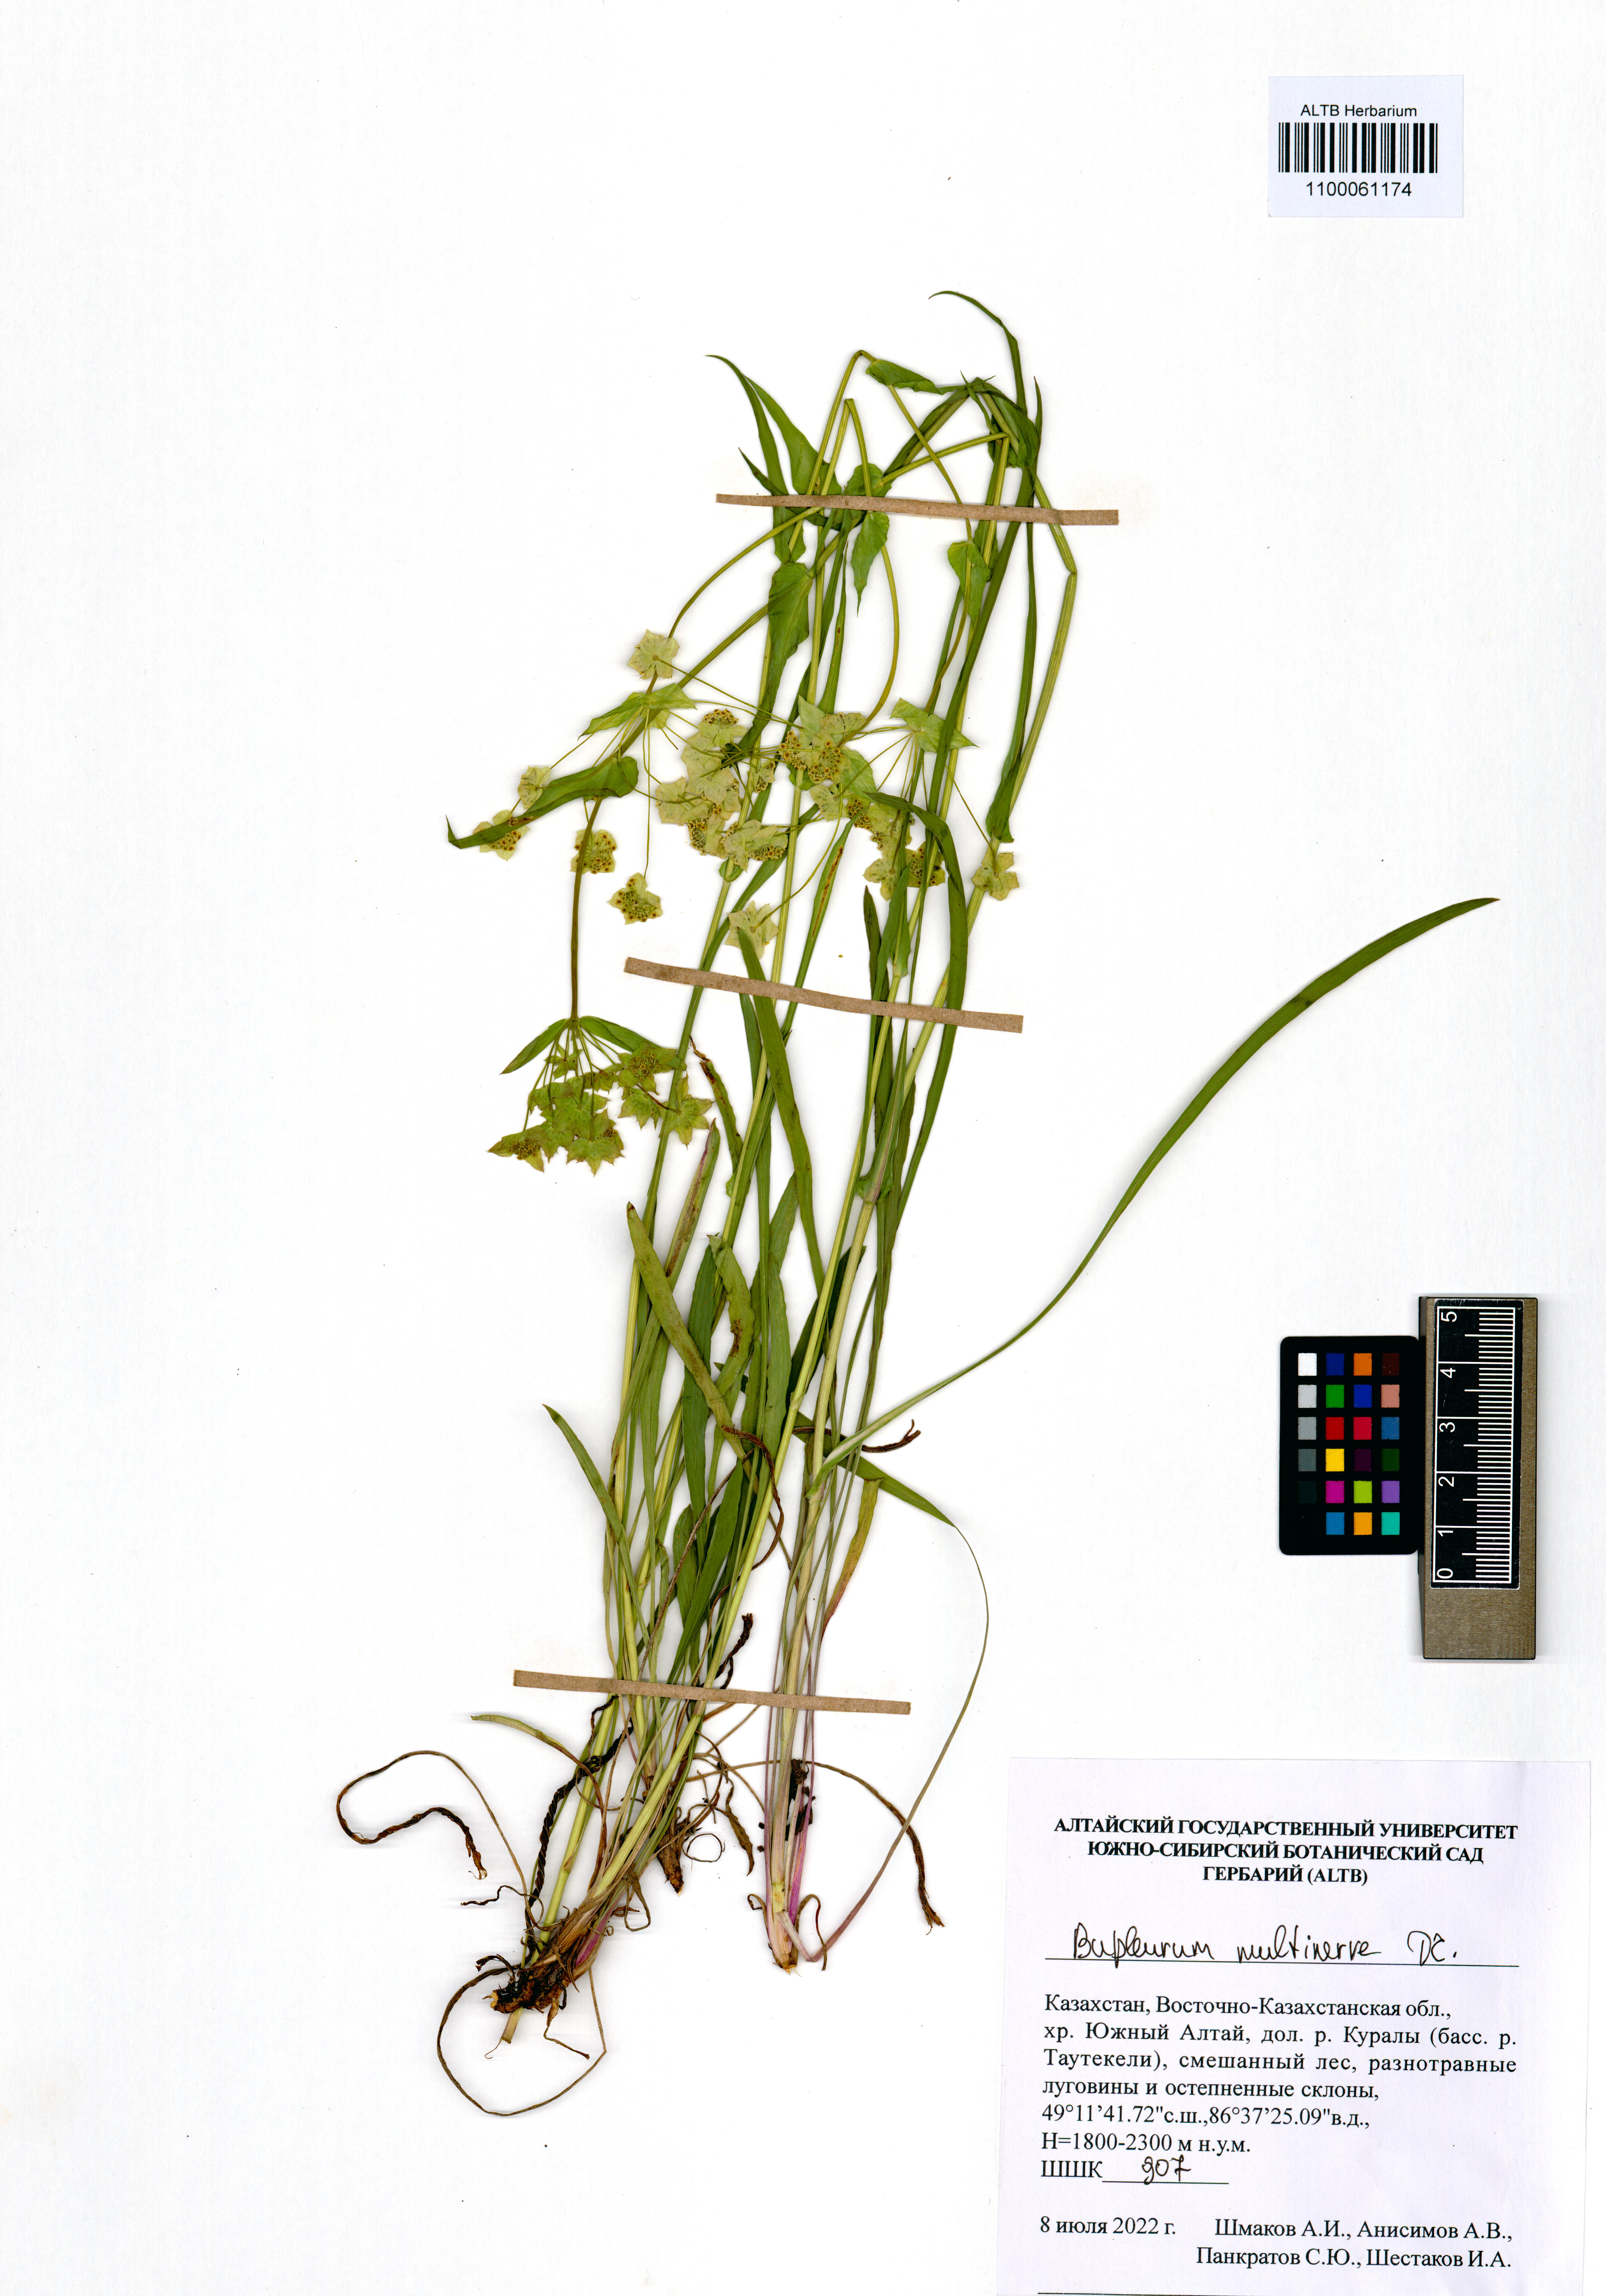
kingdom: Plantae
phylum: Tracheophyta
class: Magnoliopsida
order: Apiales
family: Apiaceae
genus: Bupleurum
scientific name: Bupleurum multinerve
